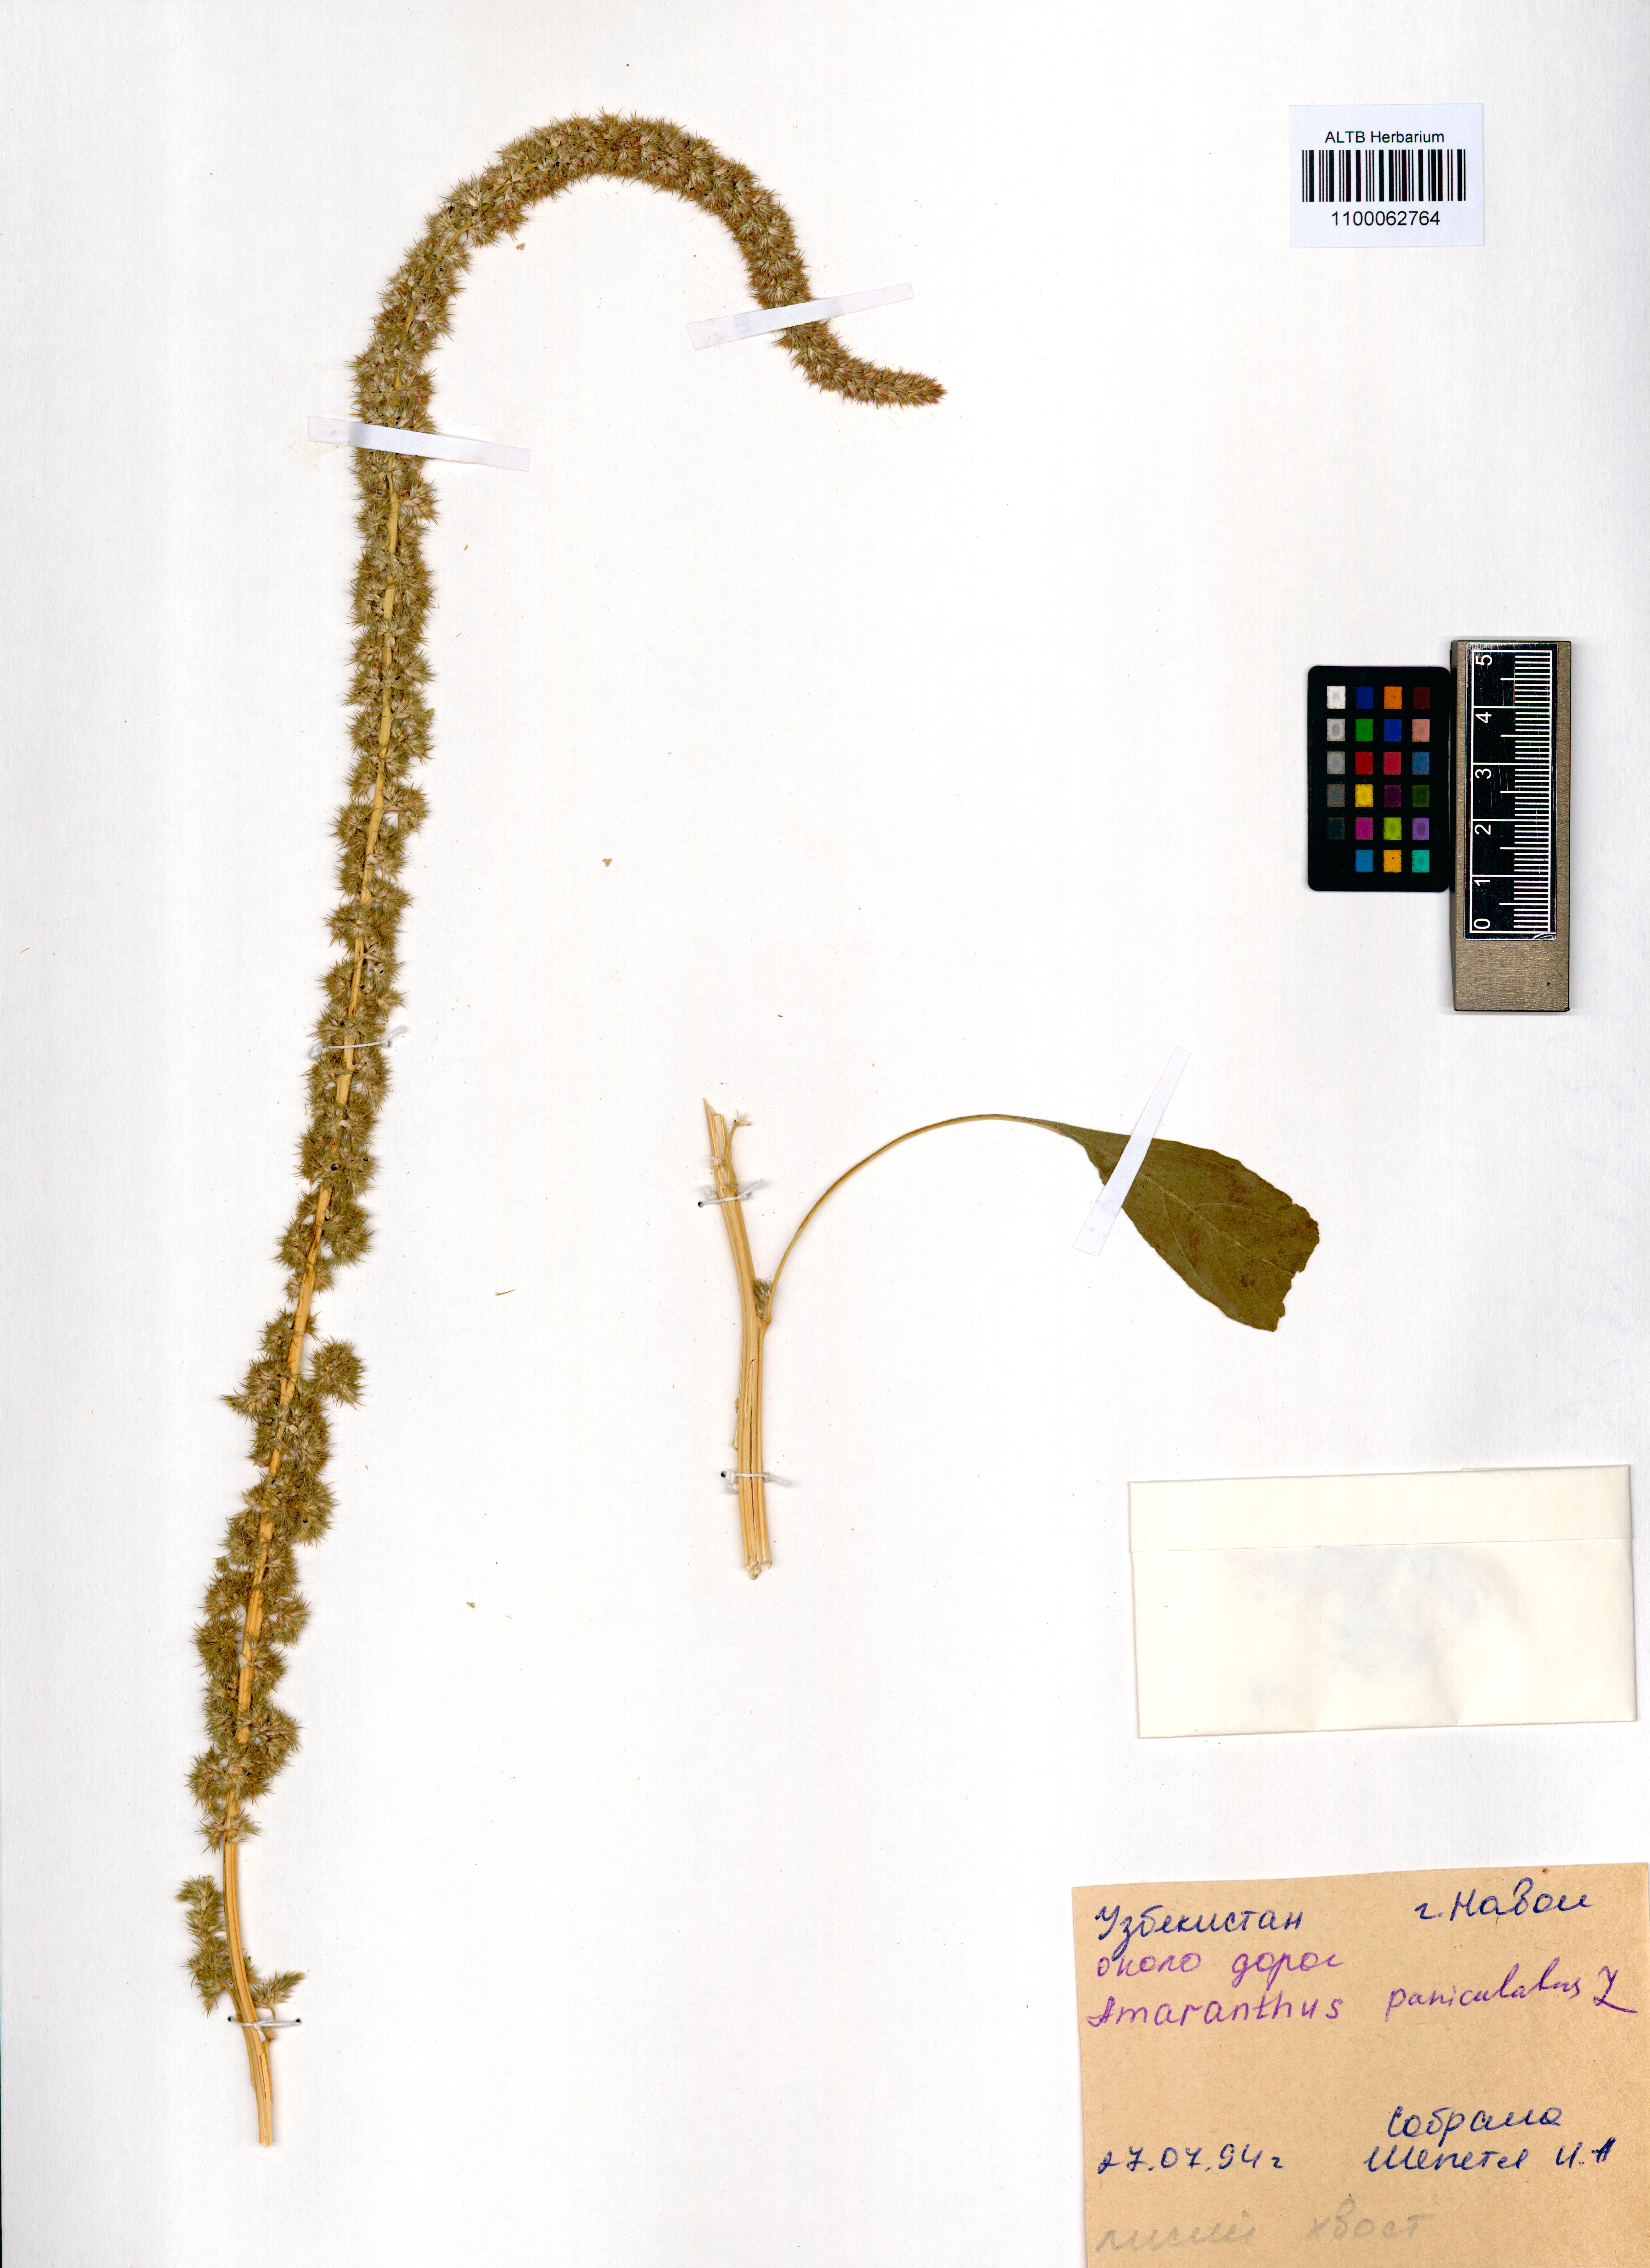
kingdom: Plantae
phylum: Tracheophyta
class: Magnoliopsida
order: Caryophyllales
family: Amaranthaceae
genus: Amaranthus
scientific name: Amaranthus cruentus
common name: Purple amaranth
